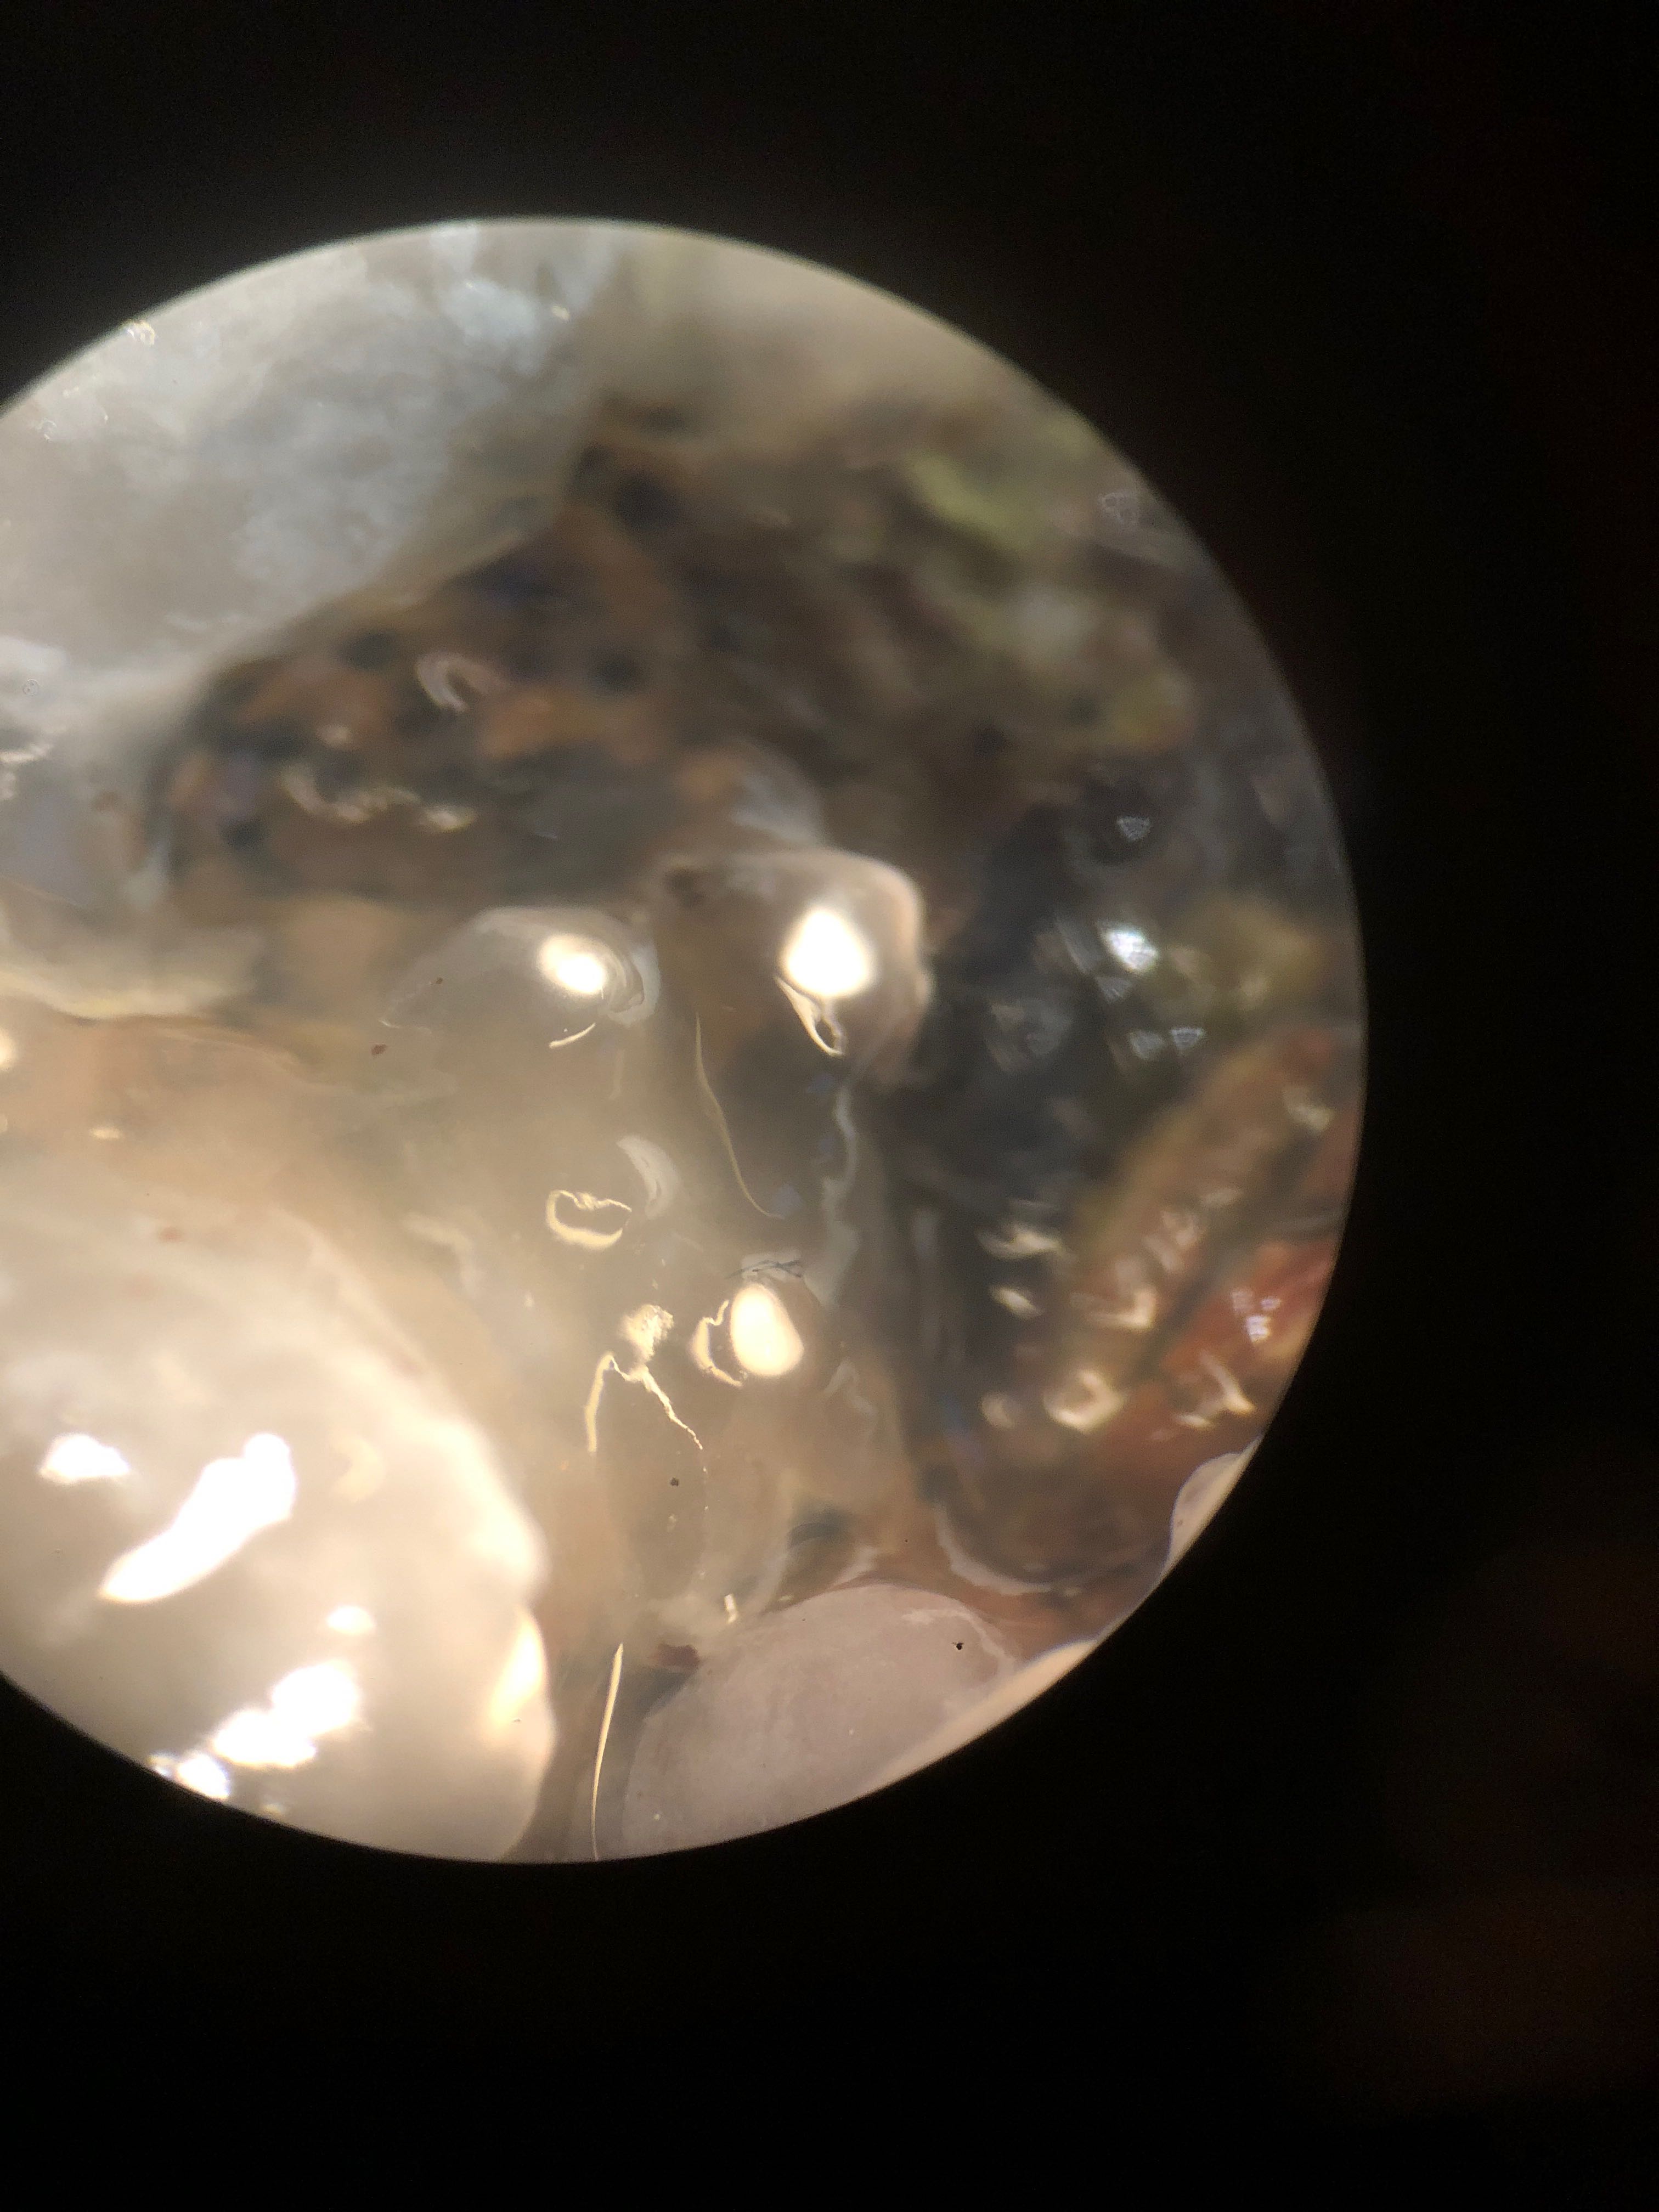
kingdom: Fungi
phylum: Basidiomycota
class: Agaricomycetes
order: Auriculariales
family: Hyaloriaceae
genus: Myxarium
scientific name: Myxarium nucleatum
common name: klar bævretop
